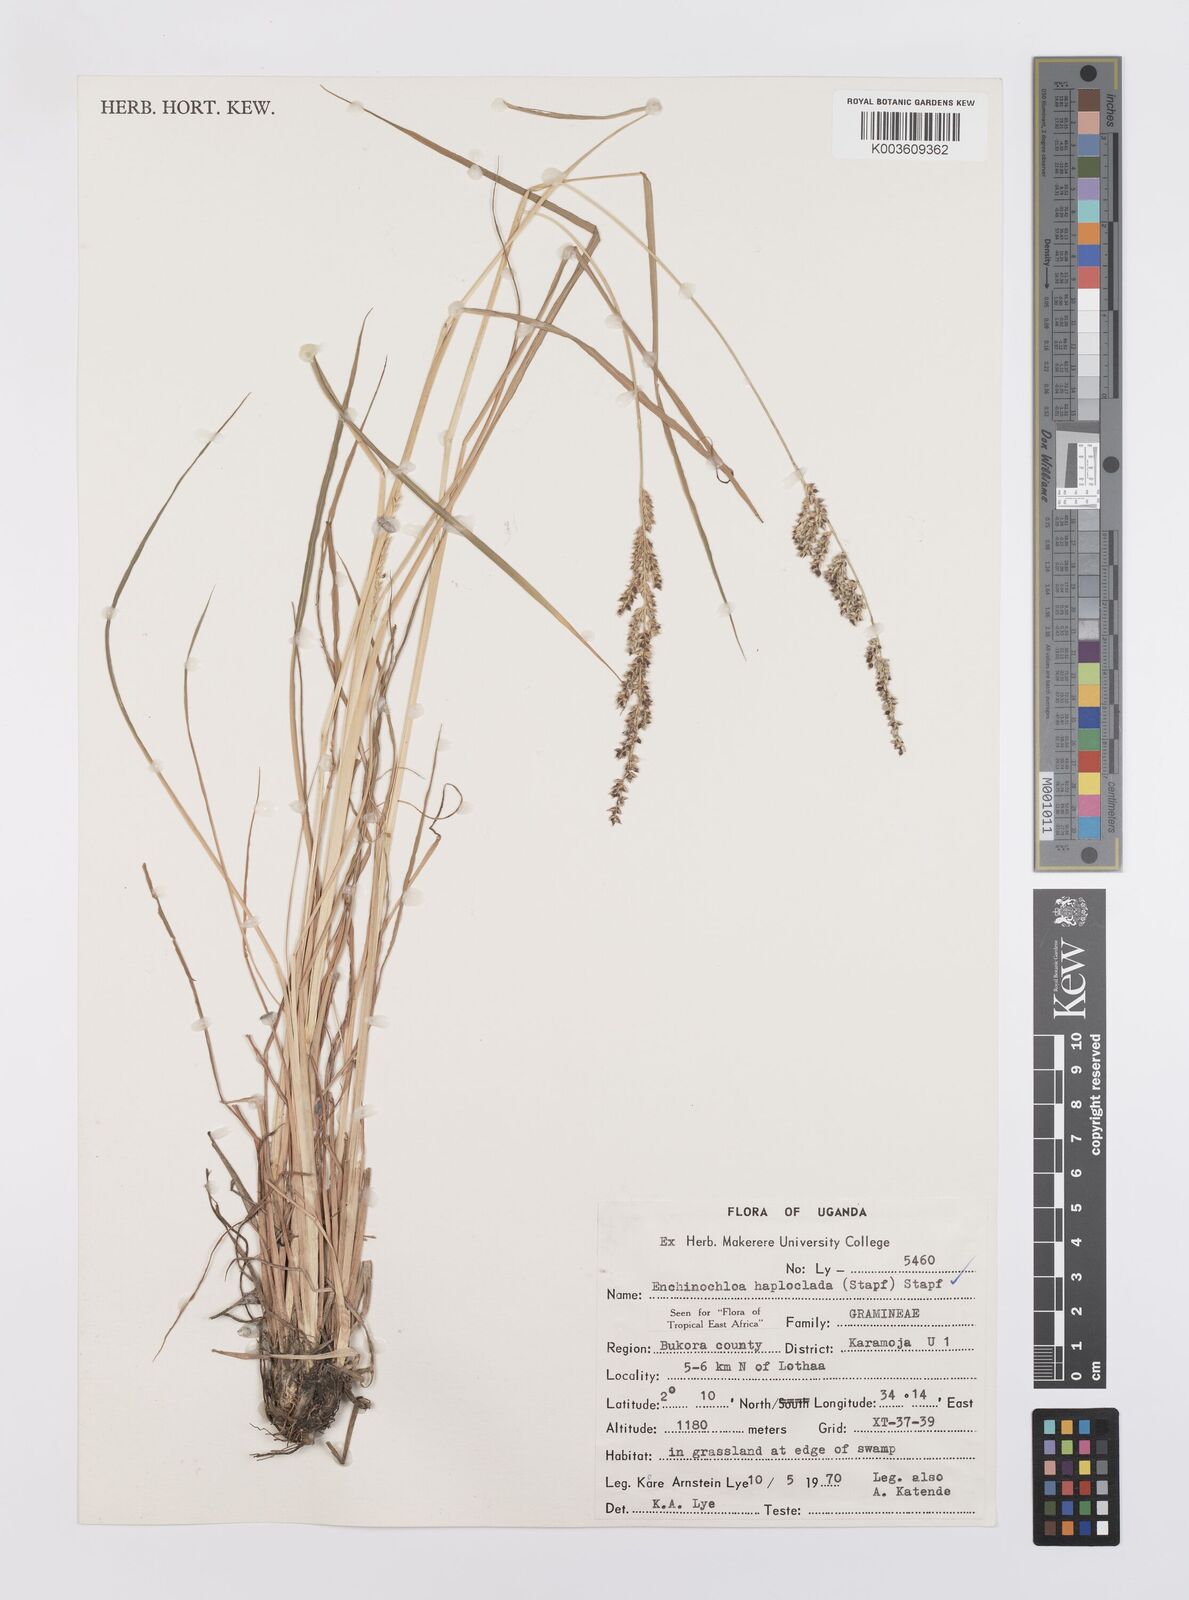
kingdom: Plantae
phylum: Tracheophyta
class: Liliopsida
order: Poales
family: Poaceae
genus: Echinochloa
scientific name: Echinochloa haploclada
